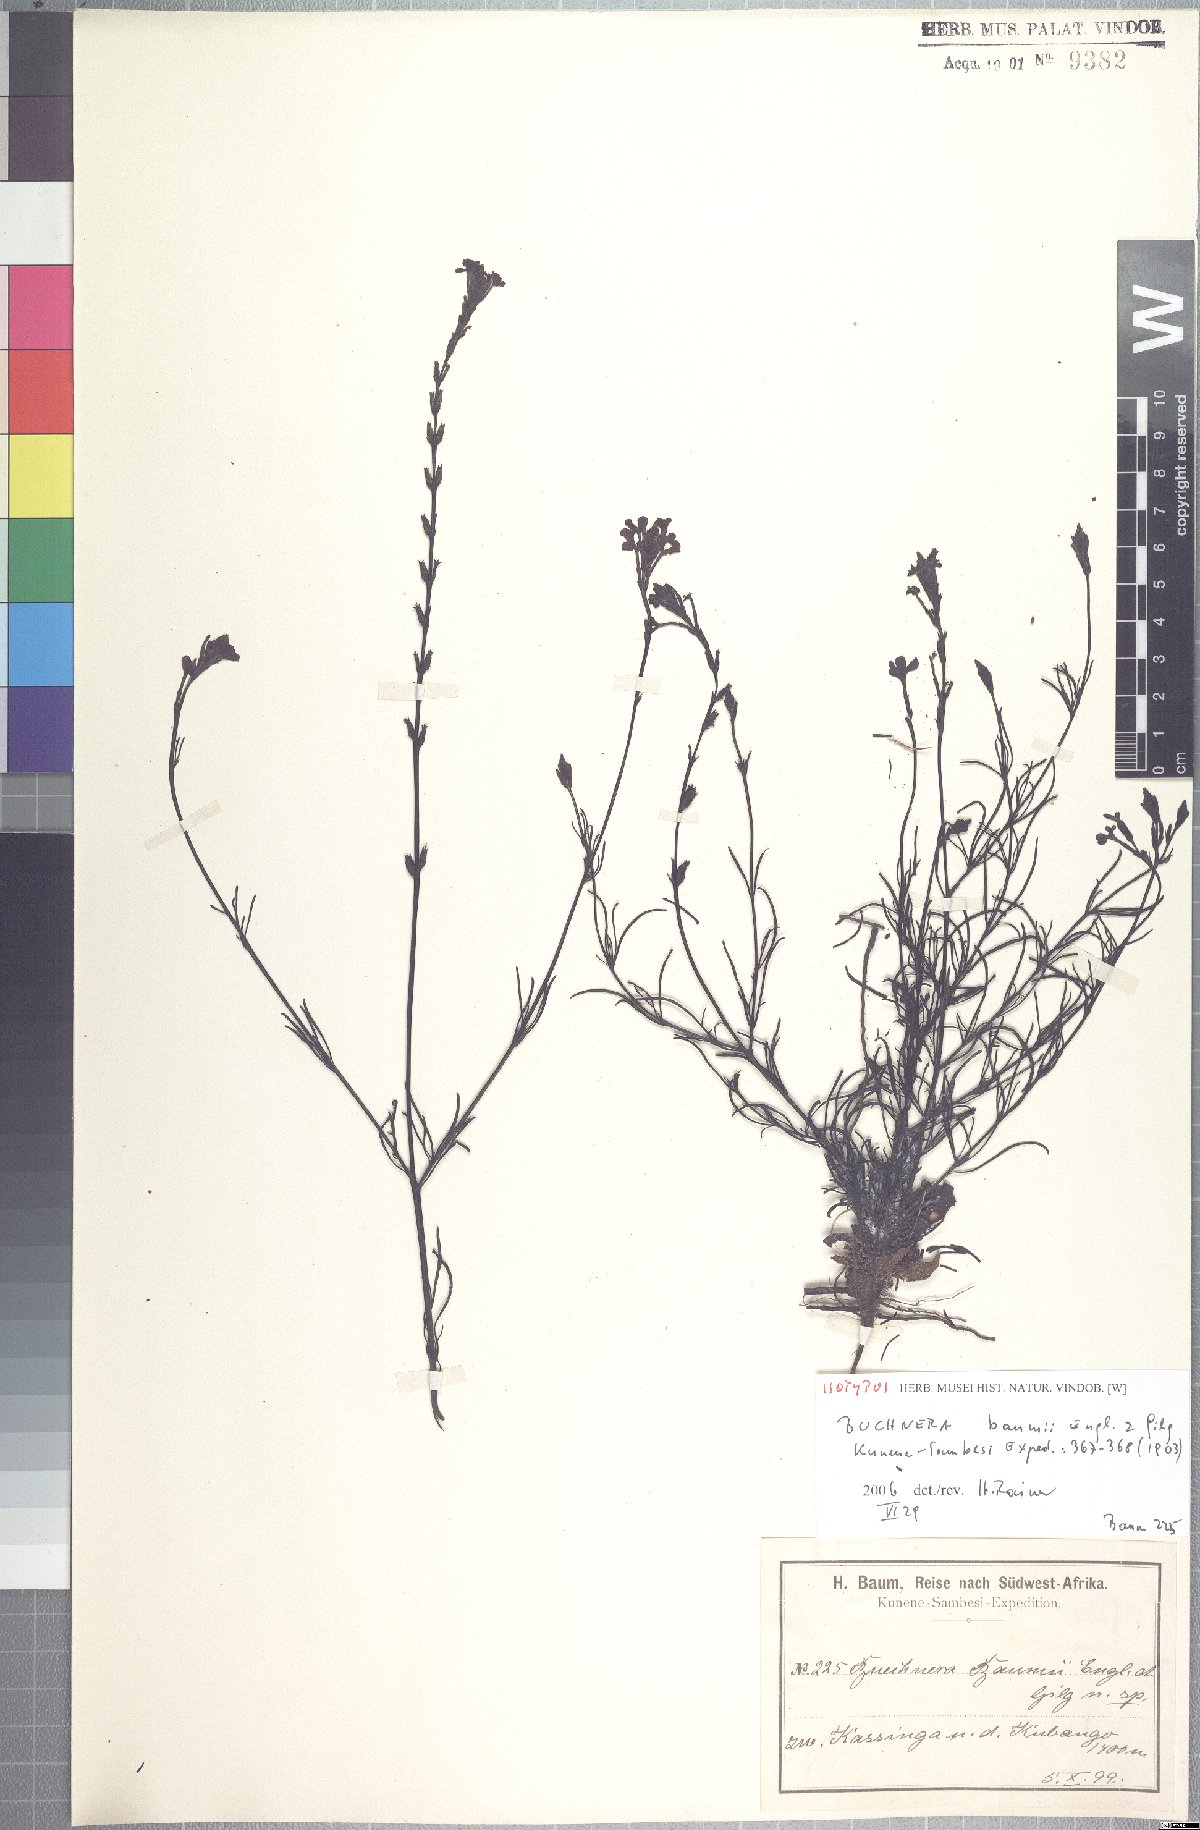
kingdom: Plantae
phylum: Tracheophyta
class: Magnoliopsida
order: Lamiales
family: Orobanchaceae
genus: Buchnera
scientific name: Buchnera baumii
